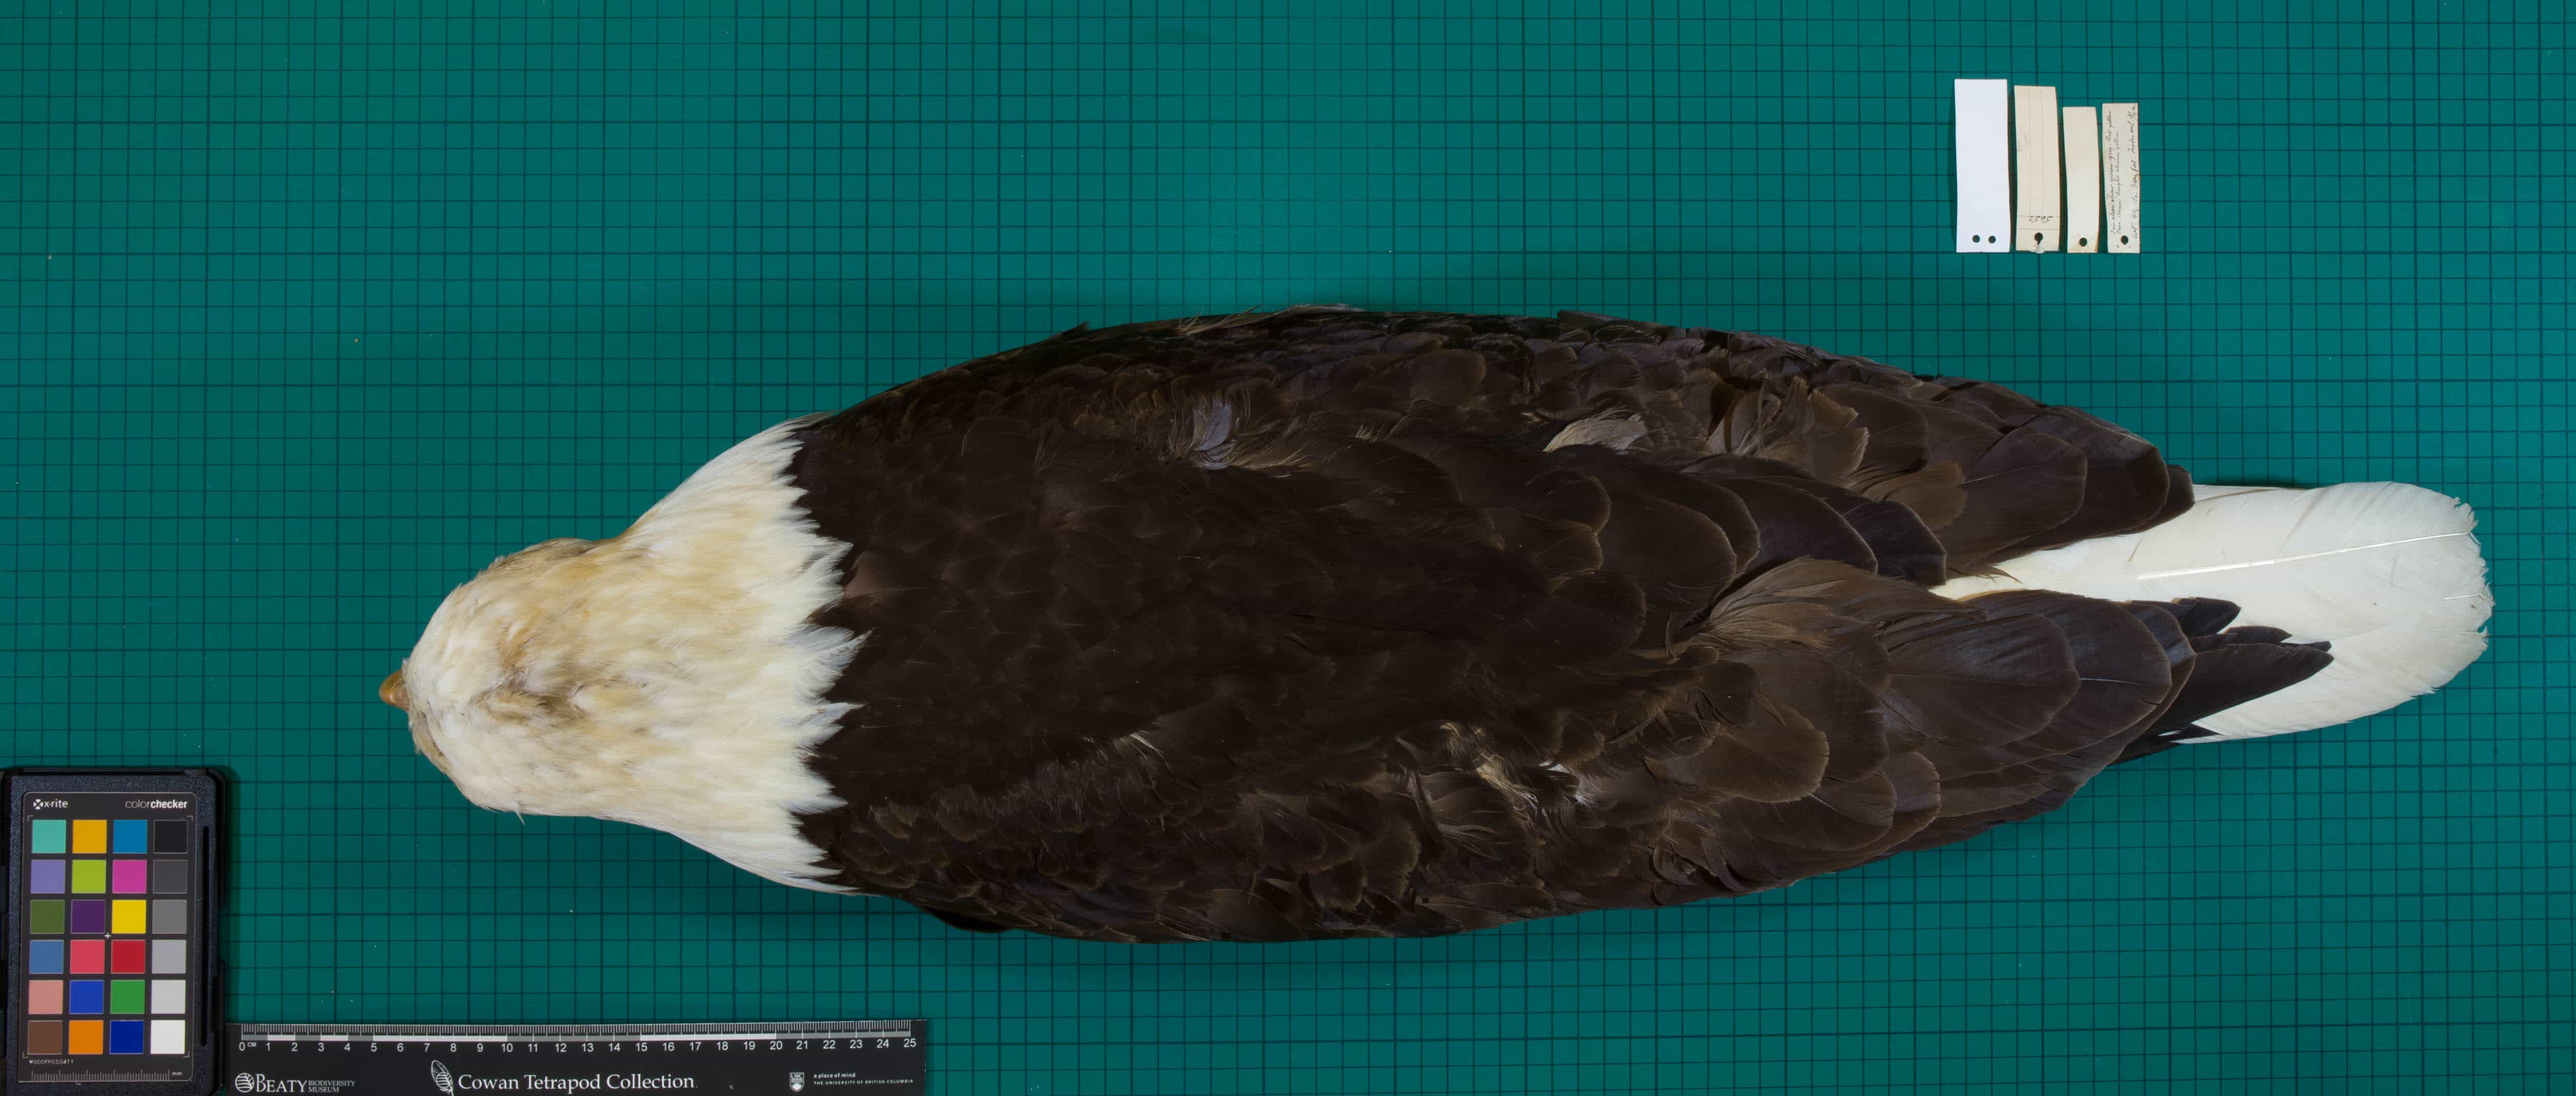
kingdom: Animalia
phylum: Chordata
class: Aves
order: Accipitriformes
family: Accipitridae
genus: Haliaeetus
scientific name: Haliaeetus leucocephalus
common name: Bald Eagle
